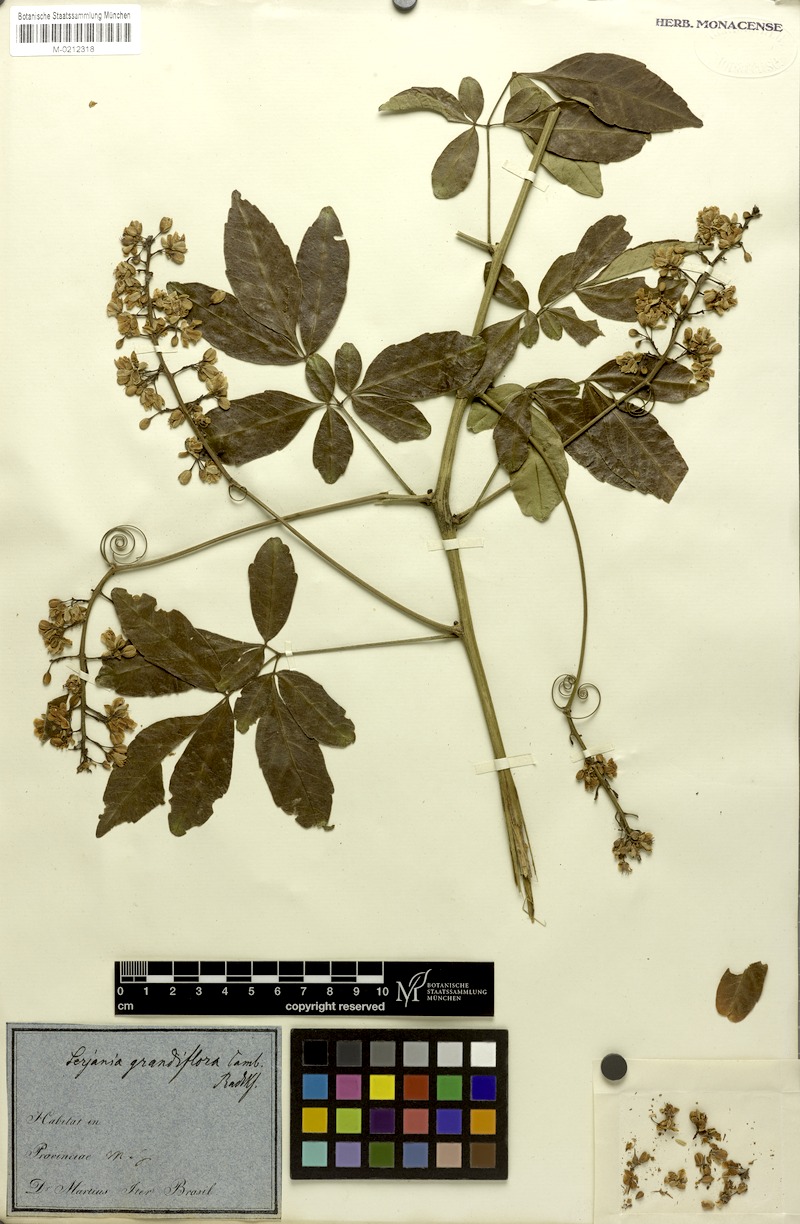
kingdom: Plantae
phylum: Tracheophyta
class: Magnoliopsida
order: Sapindales
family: Sapindaceae
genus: Serjania
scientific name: Serjania caracasana
